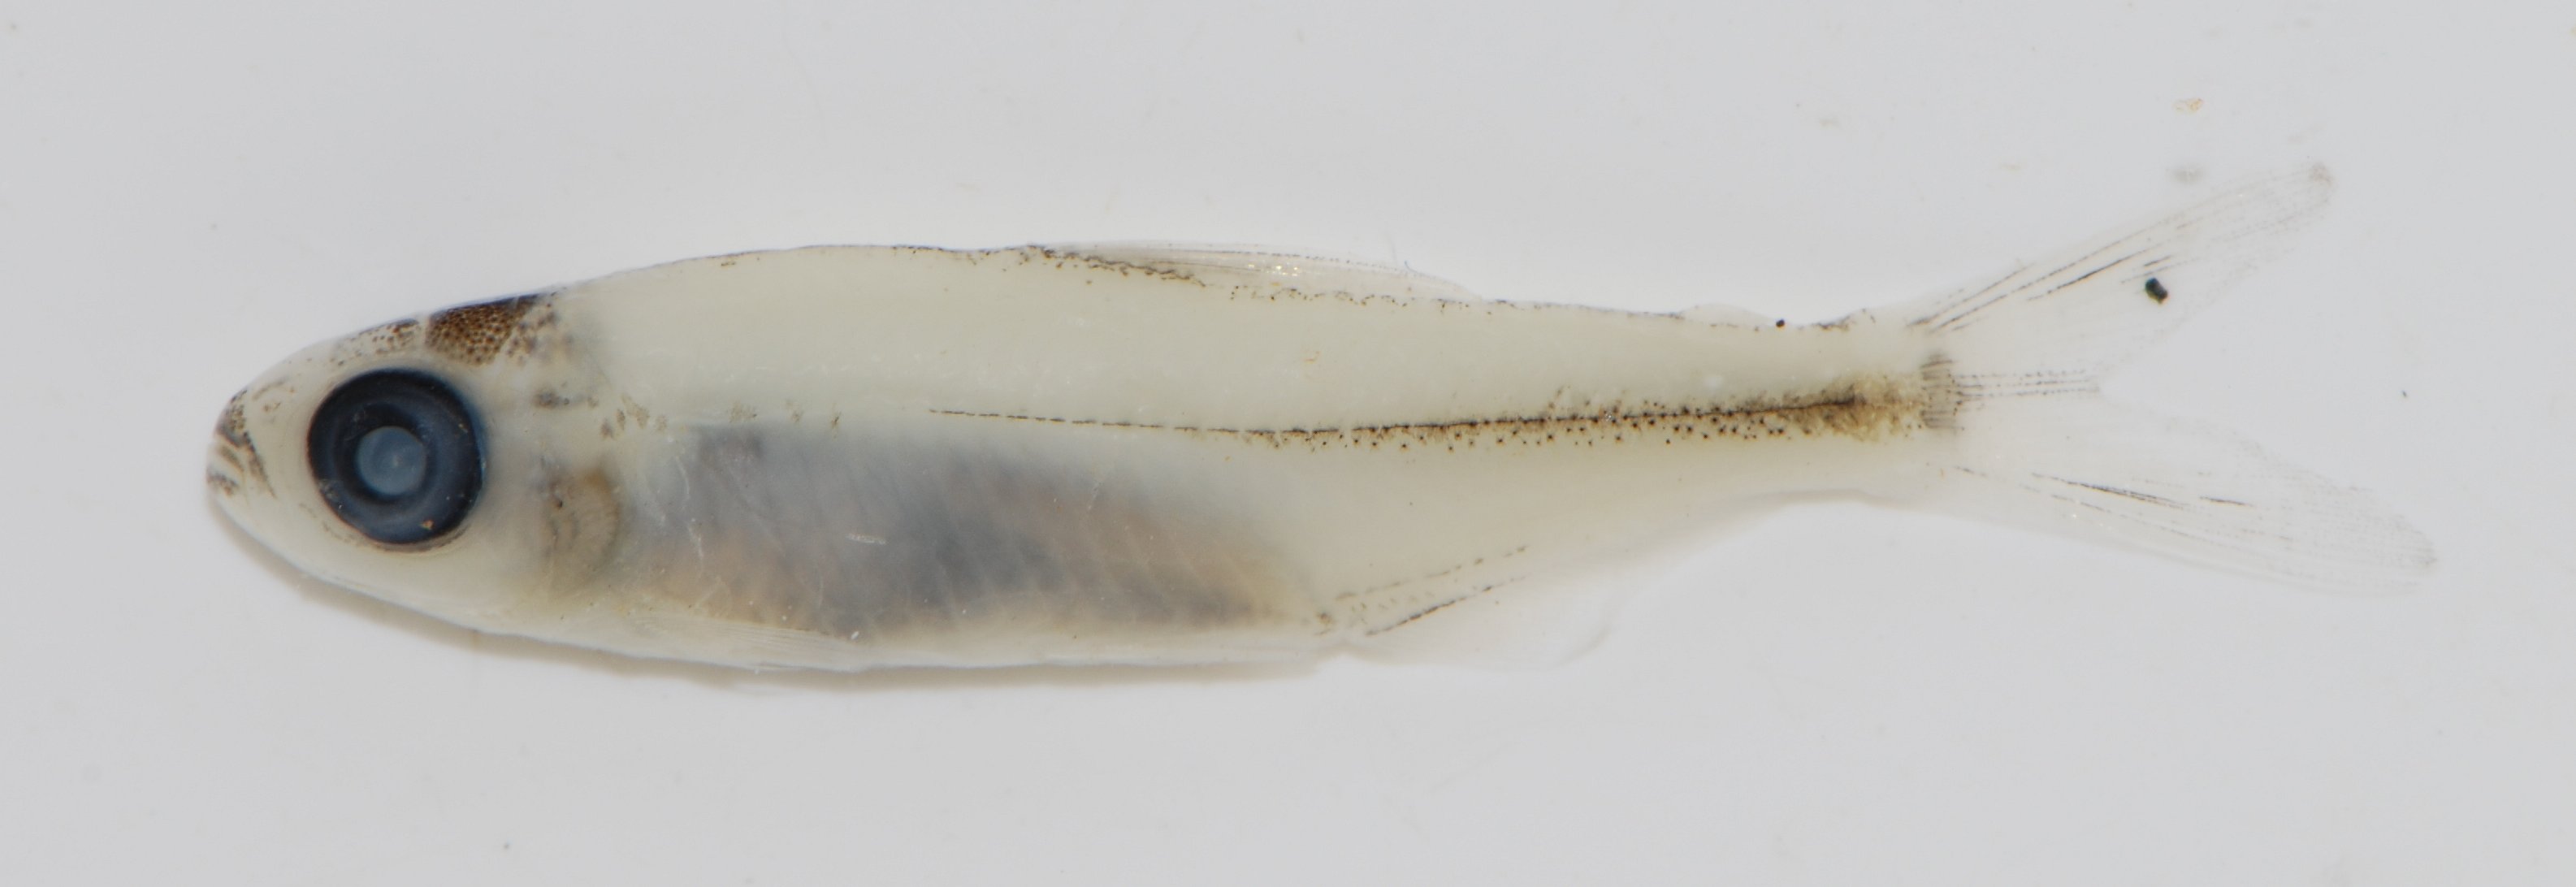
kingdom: Animalia
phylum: Chordata
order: Characiformes
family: Alestidae
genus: Bryconaethiops
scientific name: Bryconaethiops
